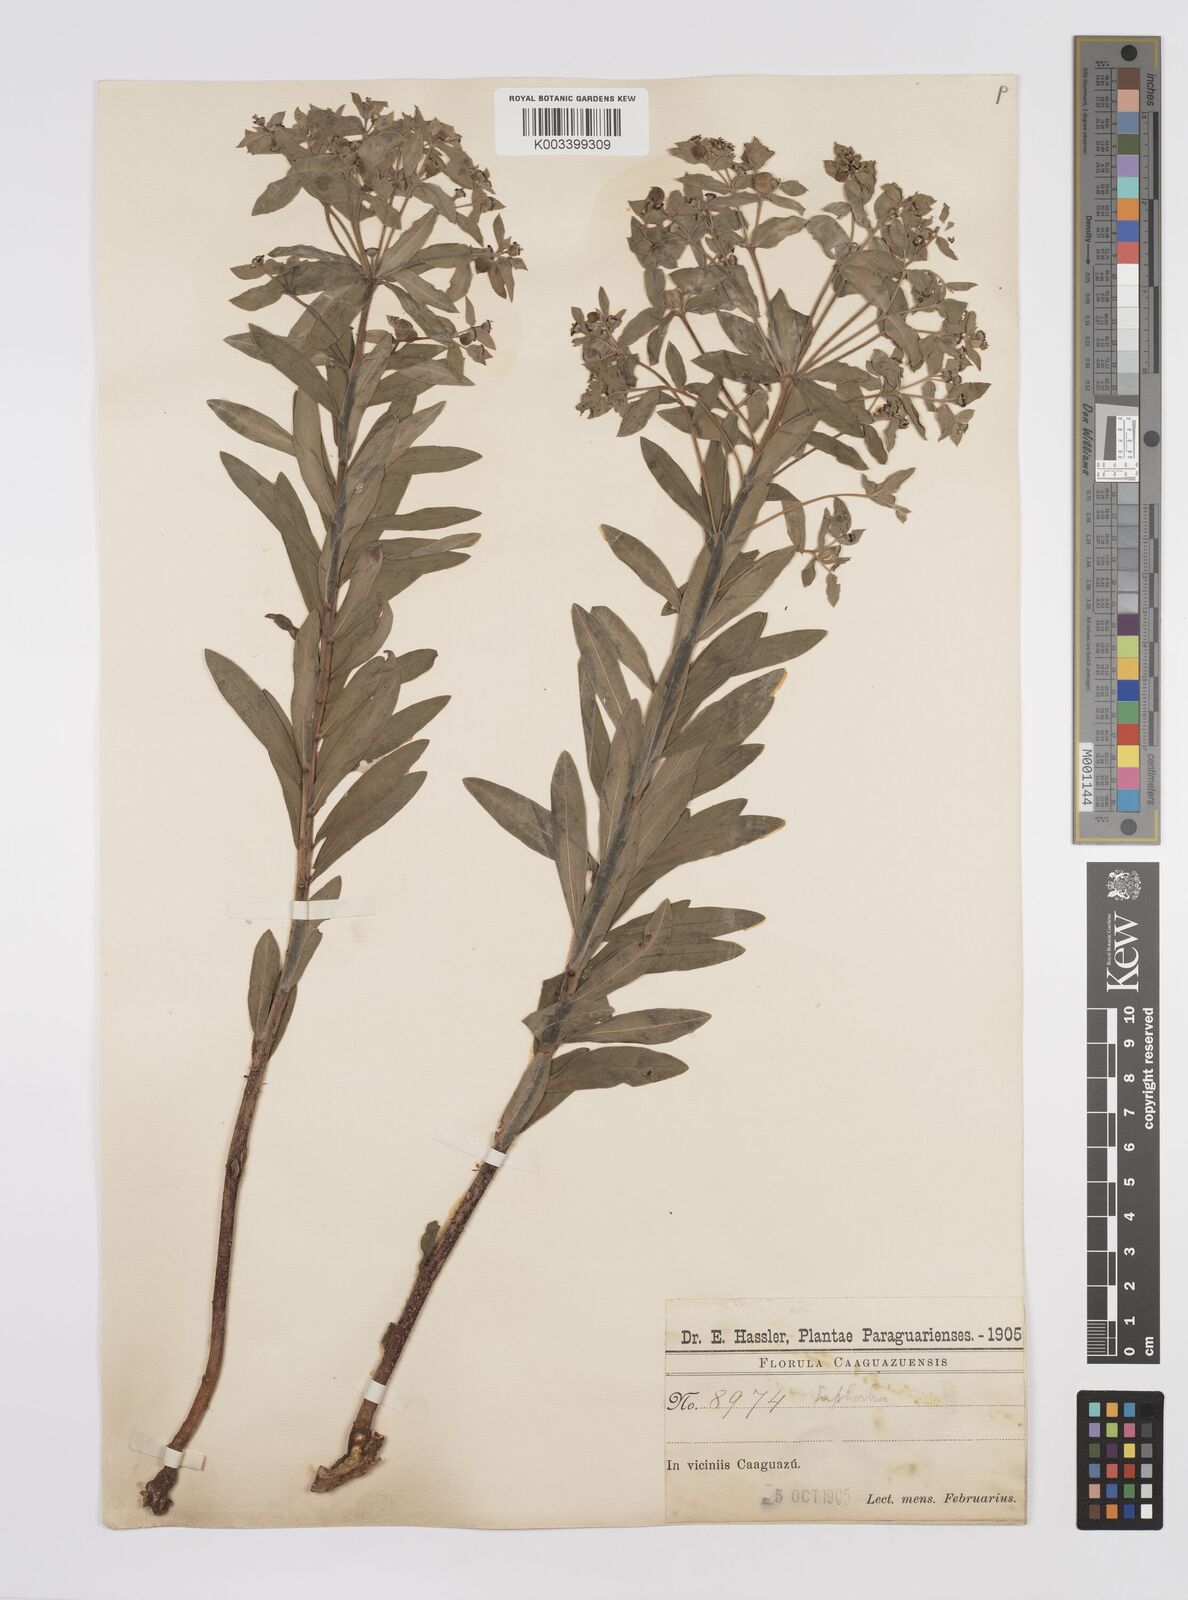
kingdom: Plantae
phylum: Tracheophyta
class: Magnoliopsida
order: Malpighiales
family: Euphorbiaceae
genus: Euphorbia
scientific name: Euphorbia
